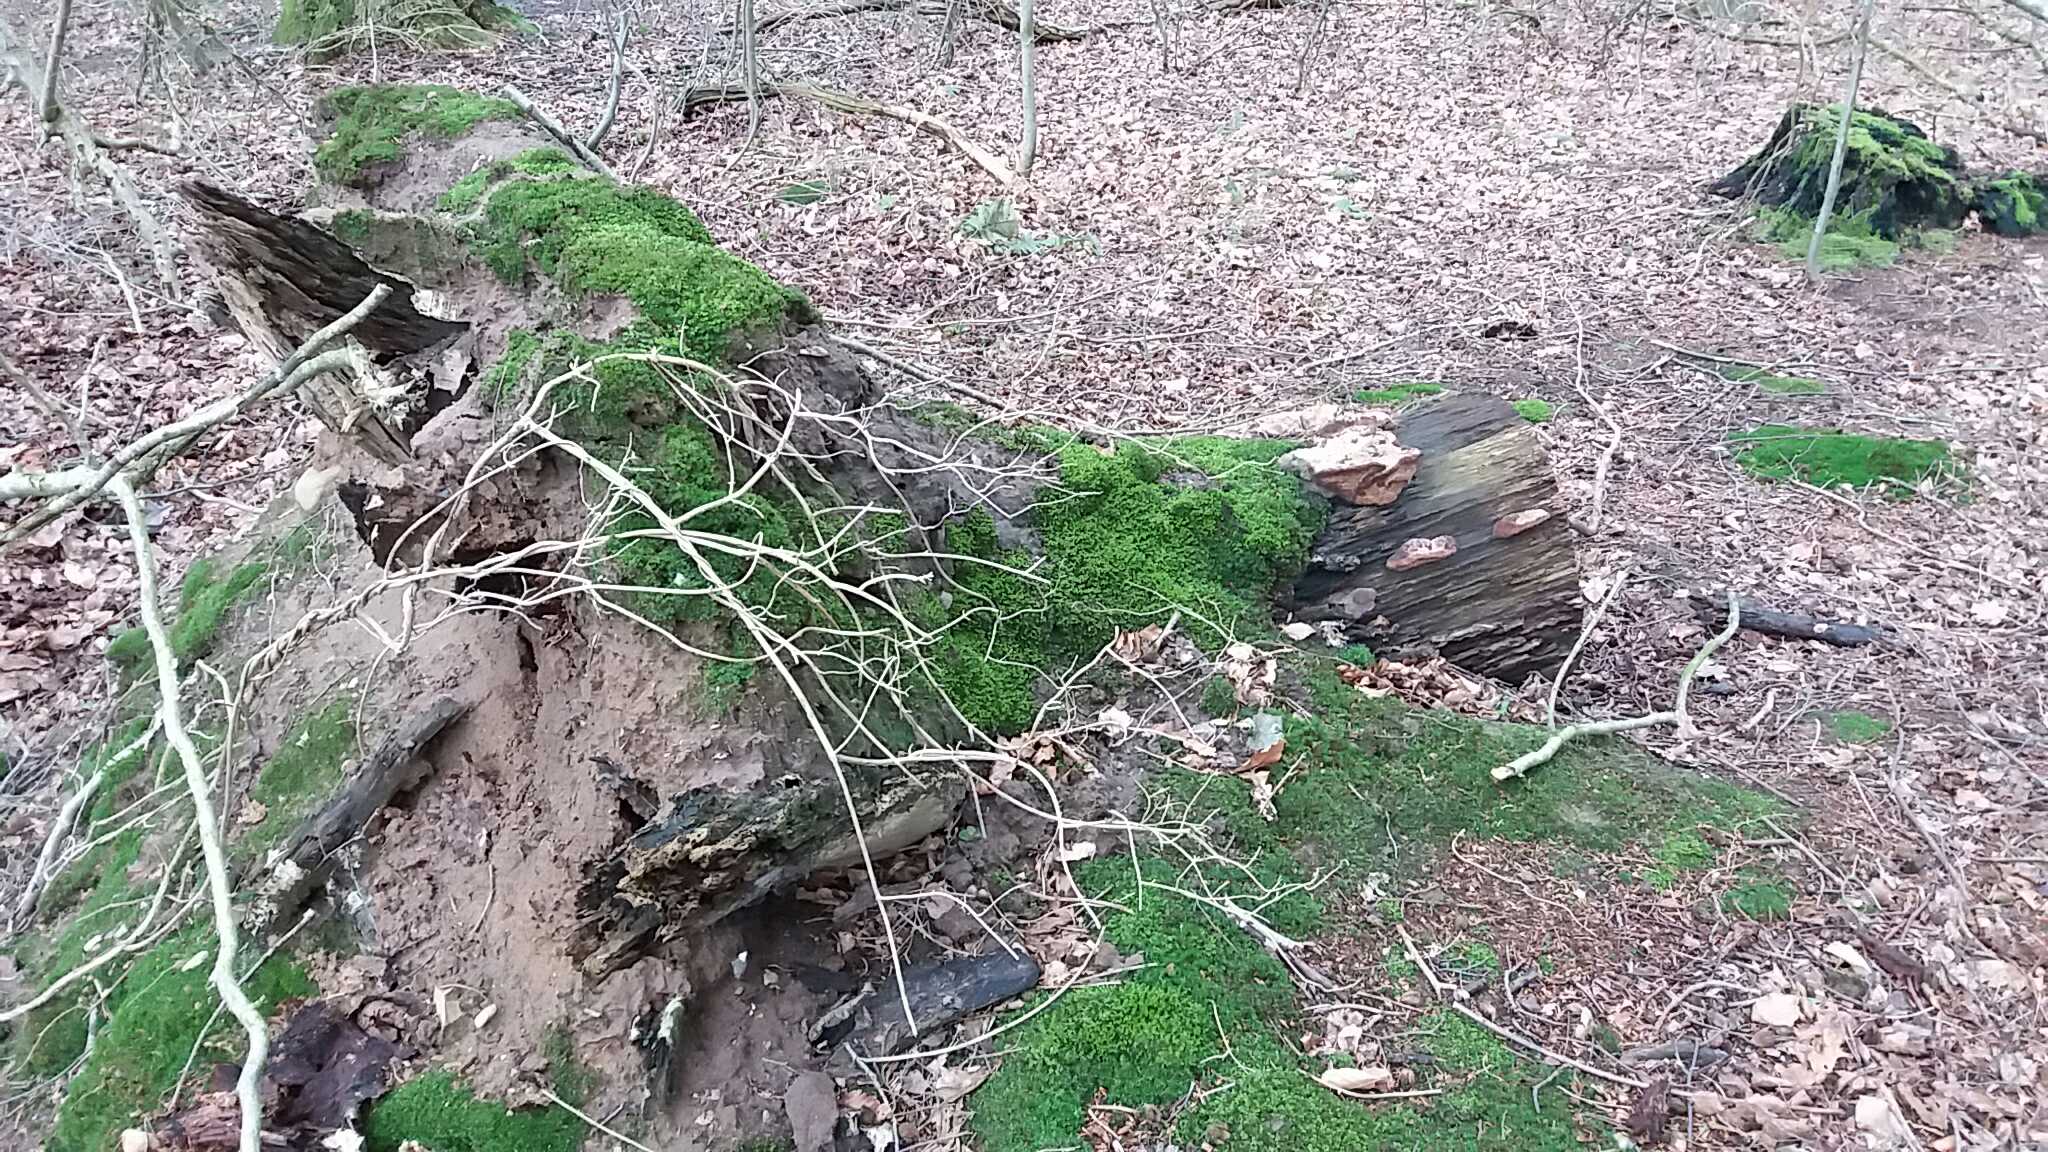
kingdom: Fungi
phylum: Basidiomycota
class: Agaricomycetes
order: Polyporales
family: Fomitopsidaceae
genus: Daedalea
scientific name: Daedalea quercina
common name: ege-labyrintsvamp
